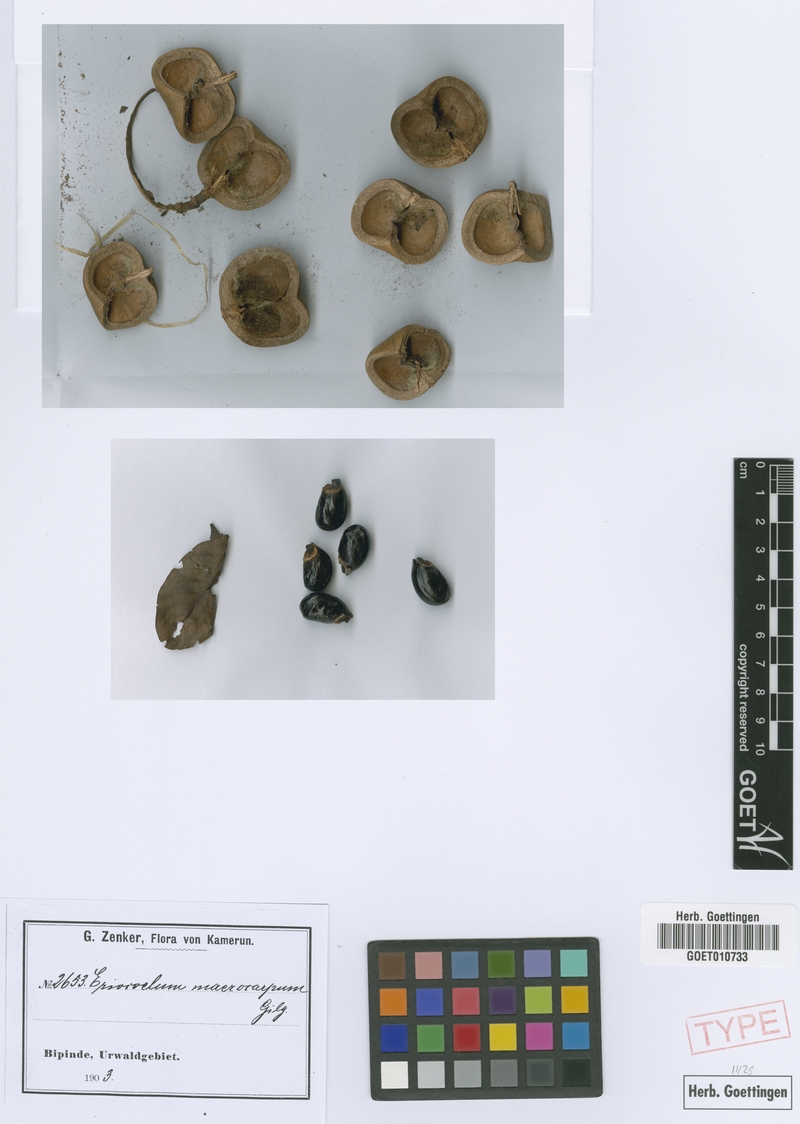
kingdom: Plantae
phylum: Tracheophyta
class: Magnoliopsida
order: Sapindales
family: Sapindaceae
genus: Eriocoelum
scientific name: Eriocoelum macrocarpum
